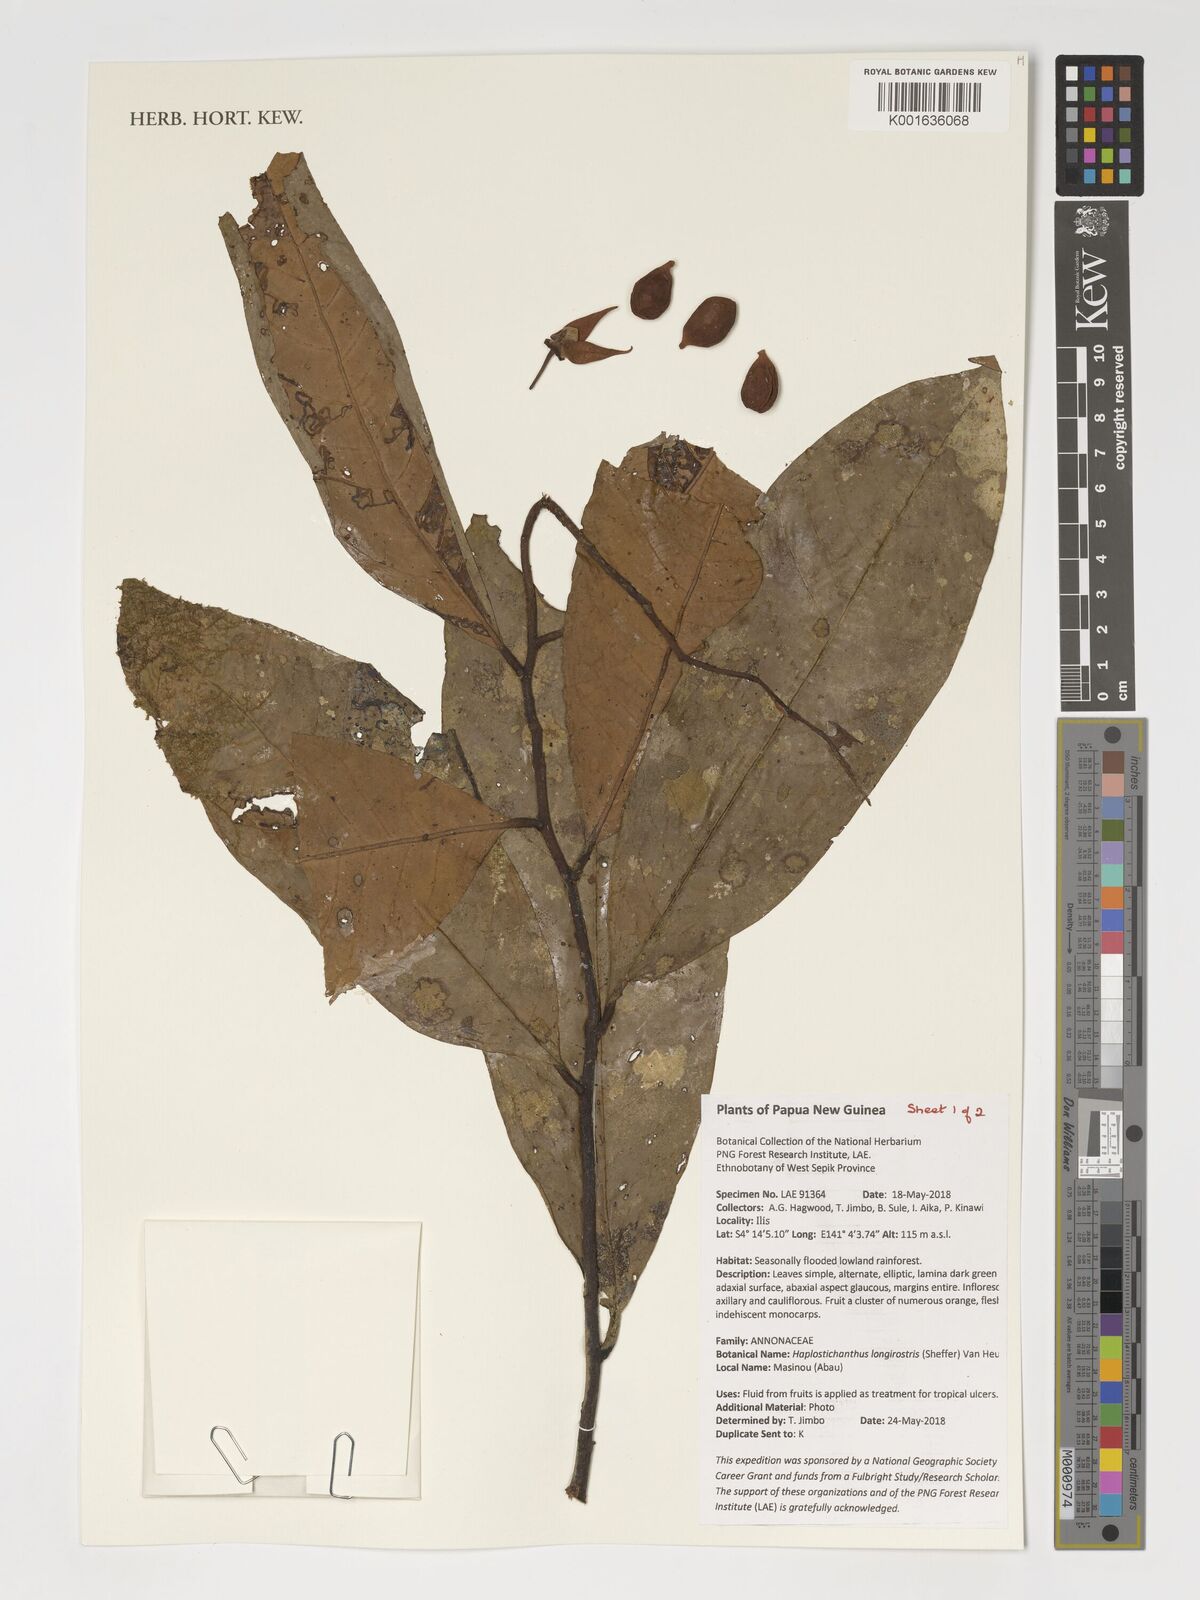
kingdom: Plantae
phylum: Tracheophyta
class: Magnoliopsida
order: Magnoliales
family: Annonaceae
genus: Haplostichanthus
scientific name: Haplostichanthus longirostris
